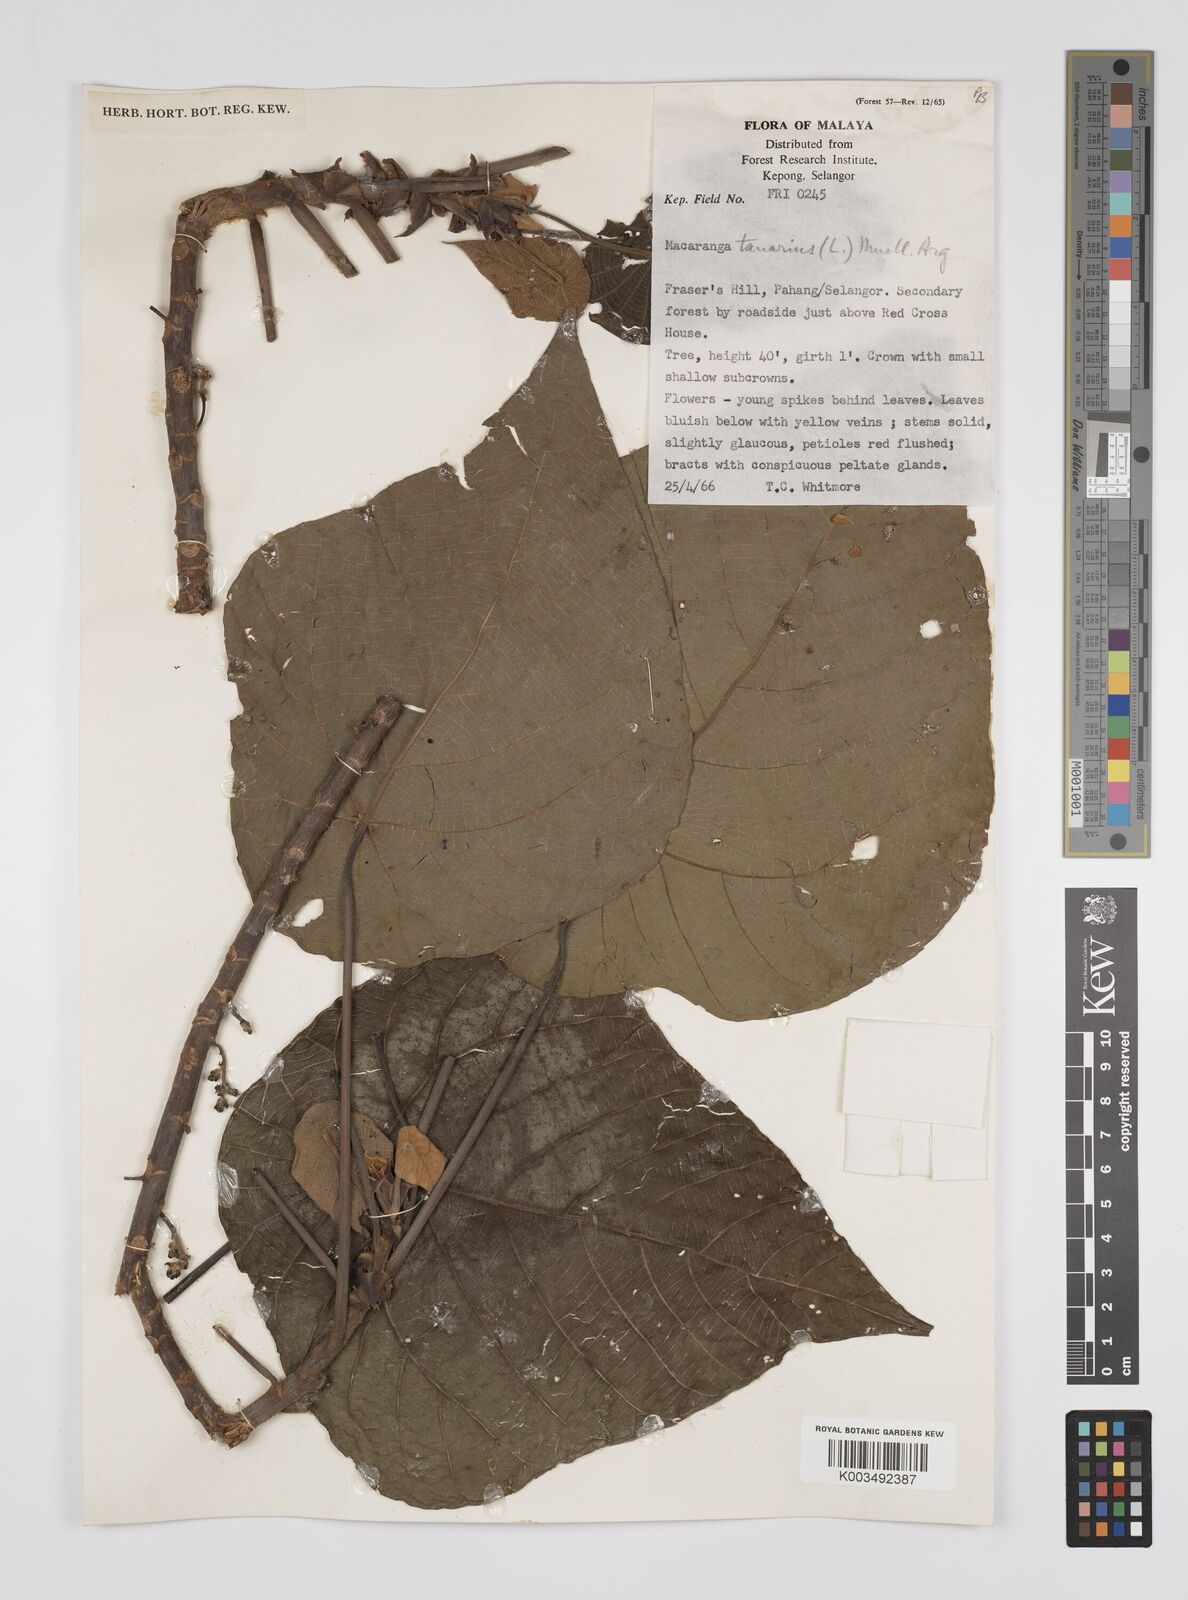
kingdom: Plantae
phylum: Tracheophyta
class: Magnoliopsida
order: Malpighiales
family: Euphorbiaceae
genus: Macaranga
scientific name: Macaranga tanarius
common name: Parasol leaf tree
